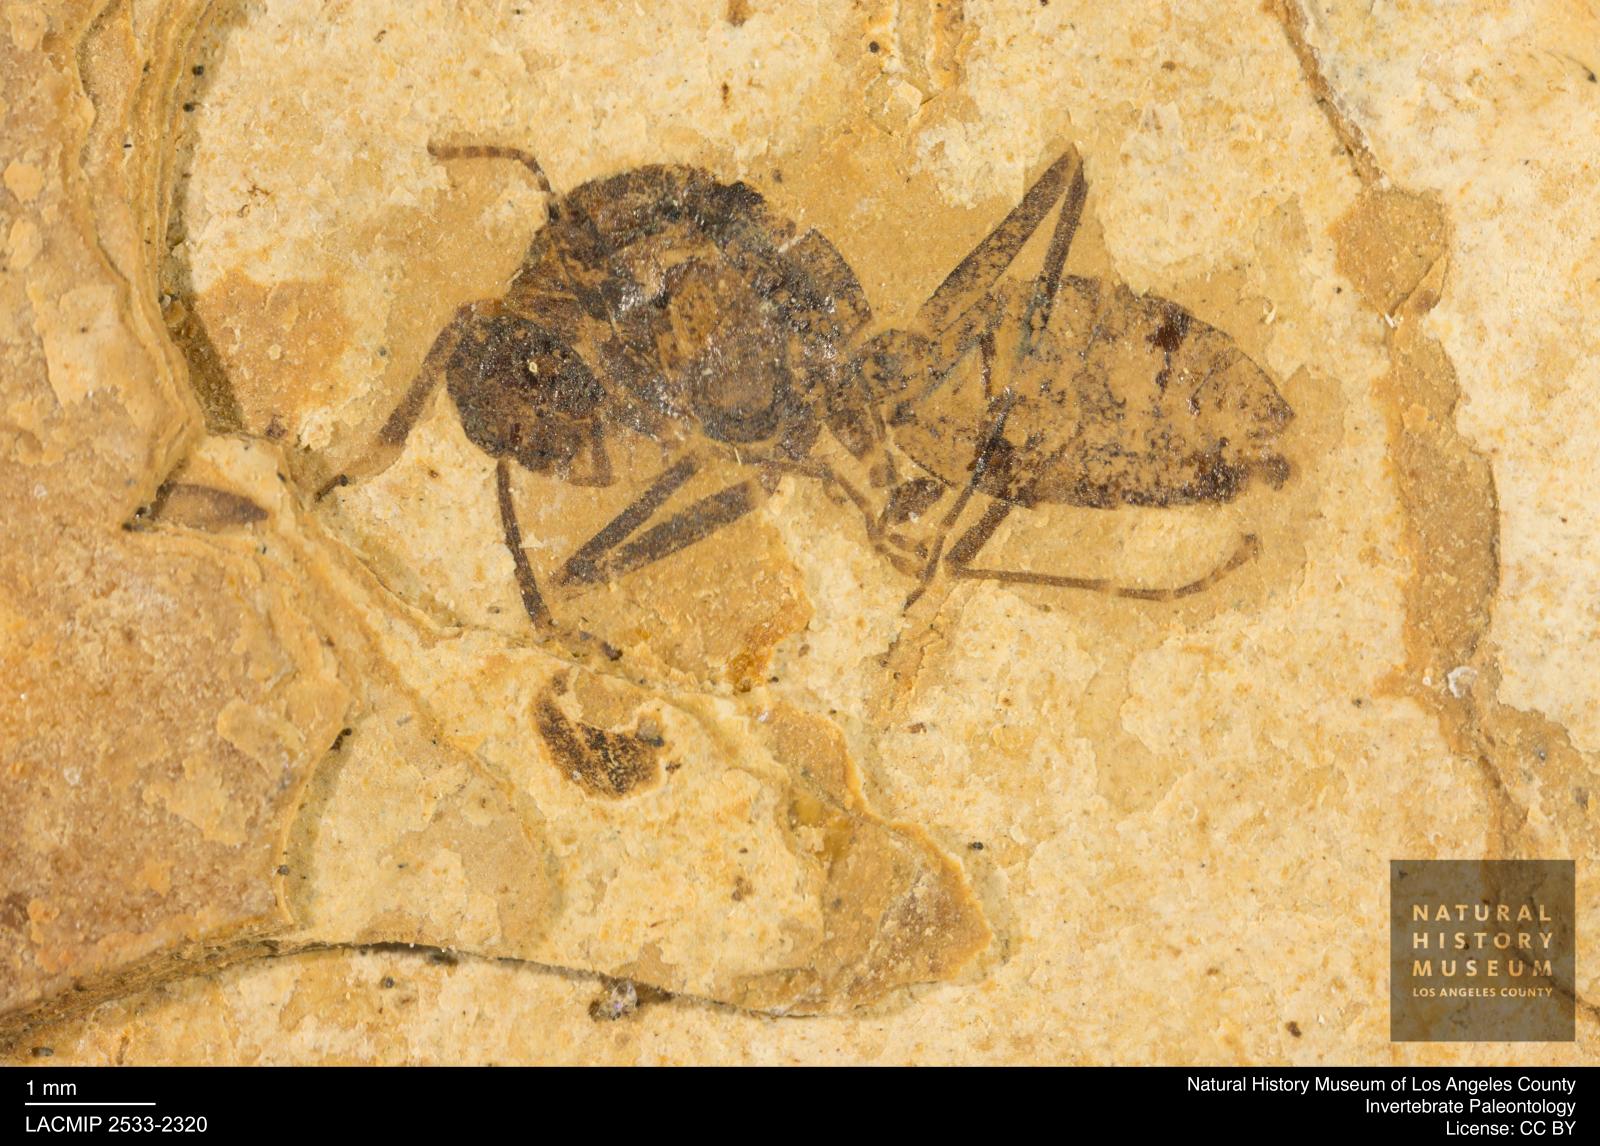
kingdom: Animalia
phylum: Arthropoda
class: Insecta
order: Hymenoptera
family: Formicidae
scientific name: Formicidae
